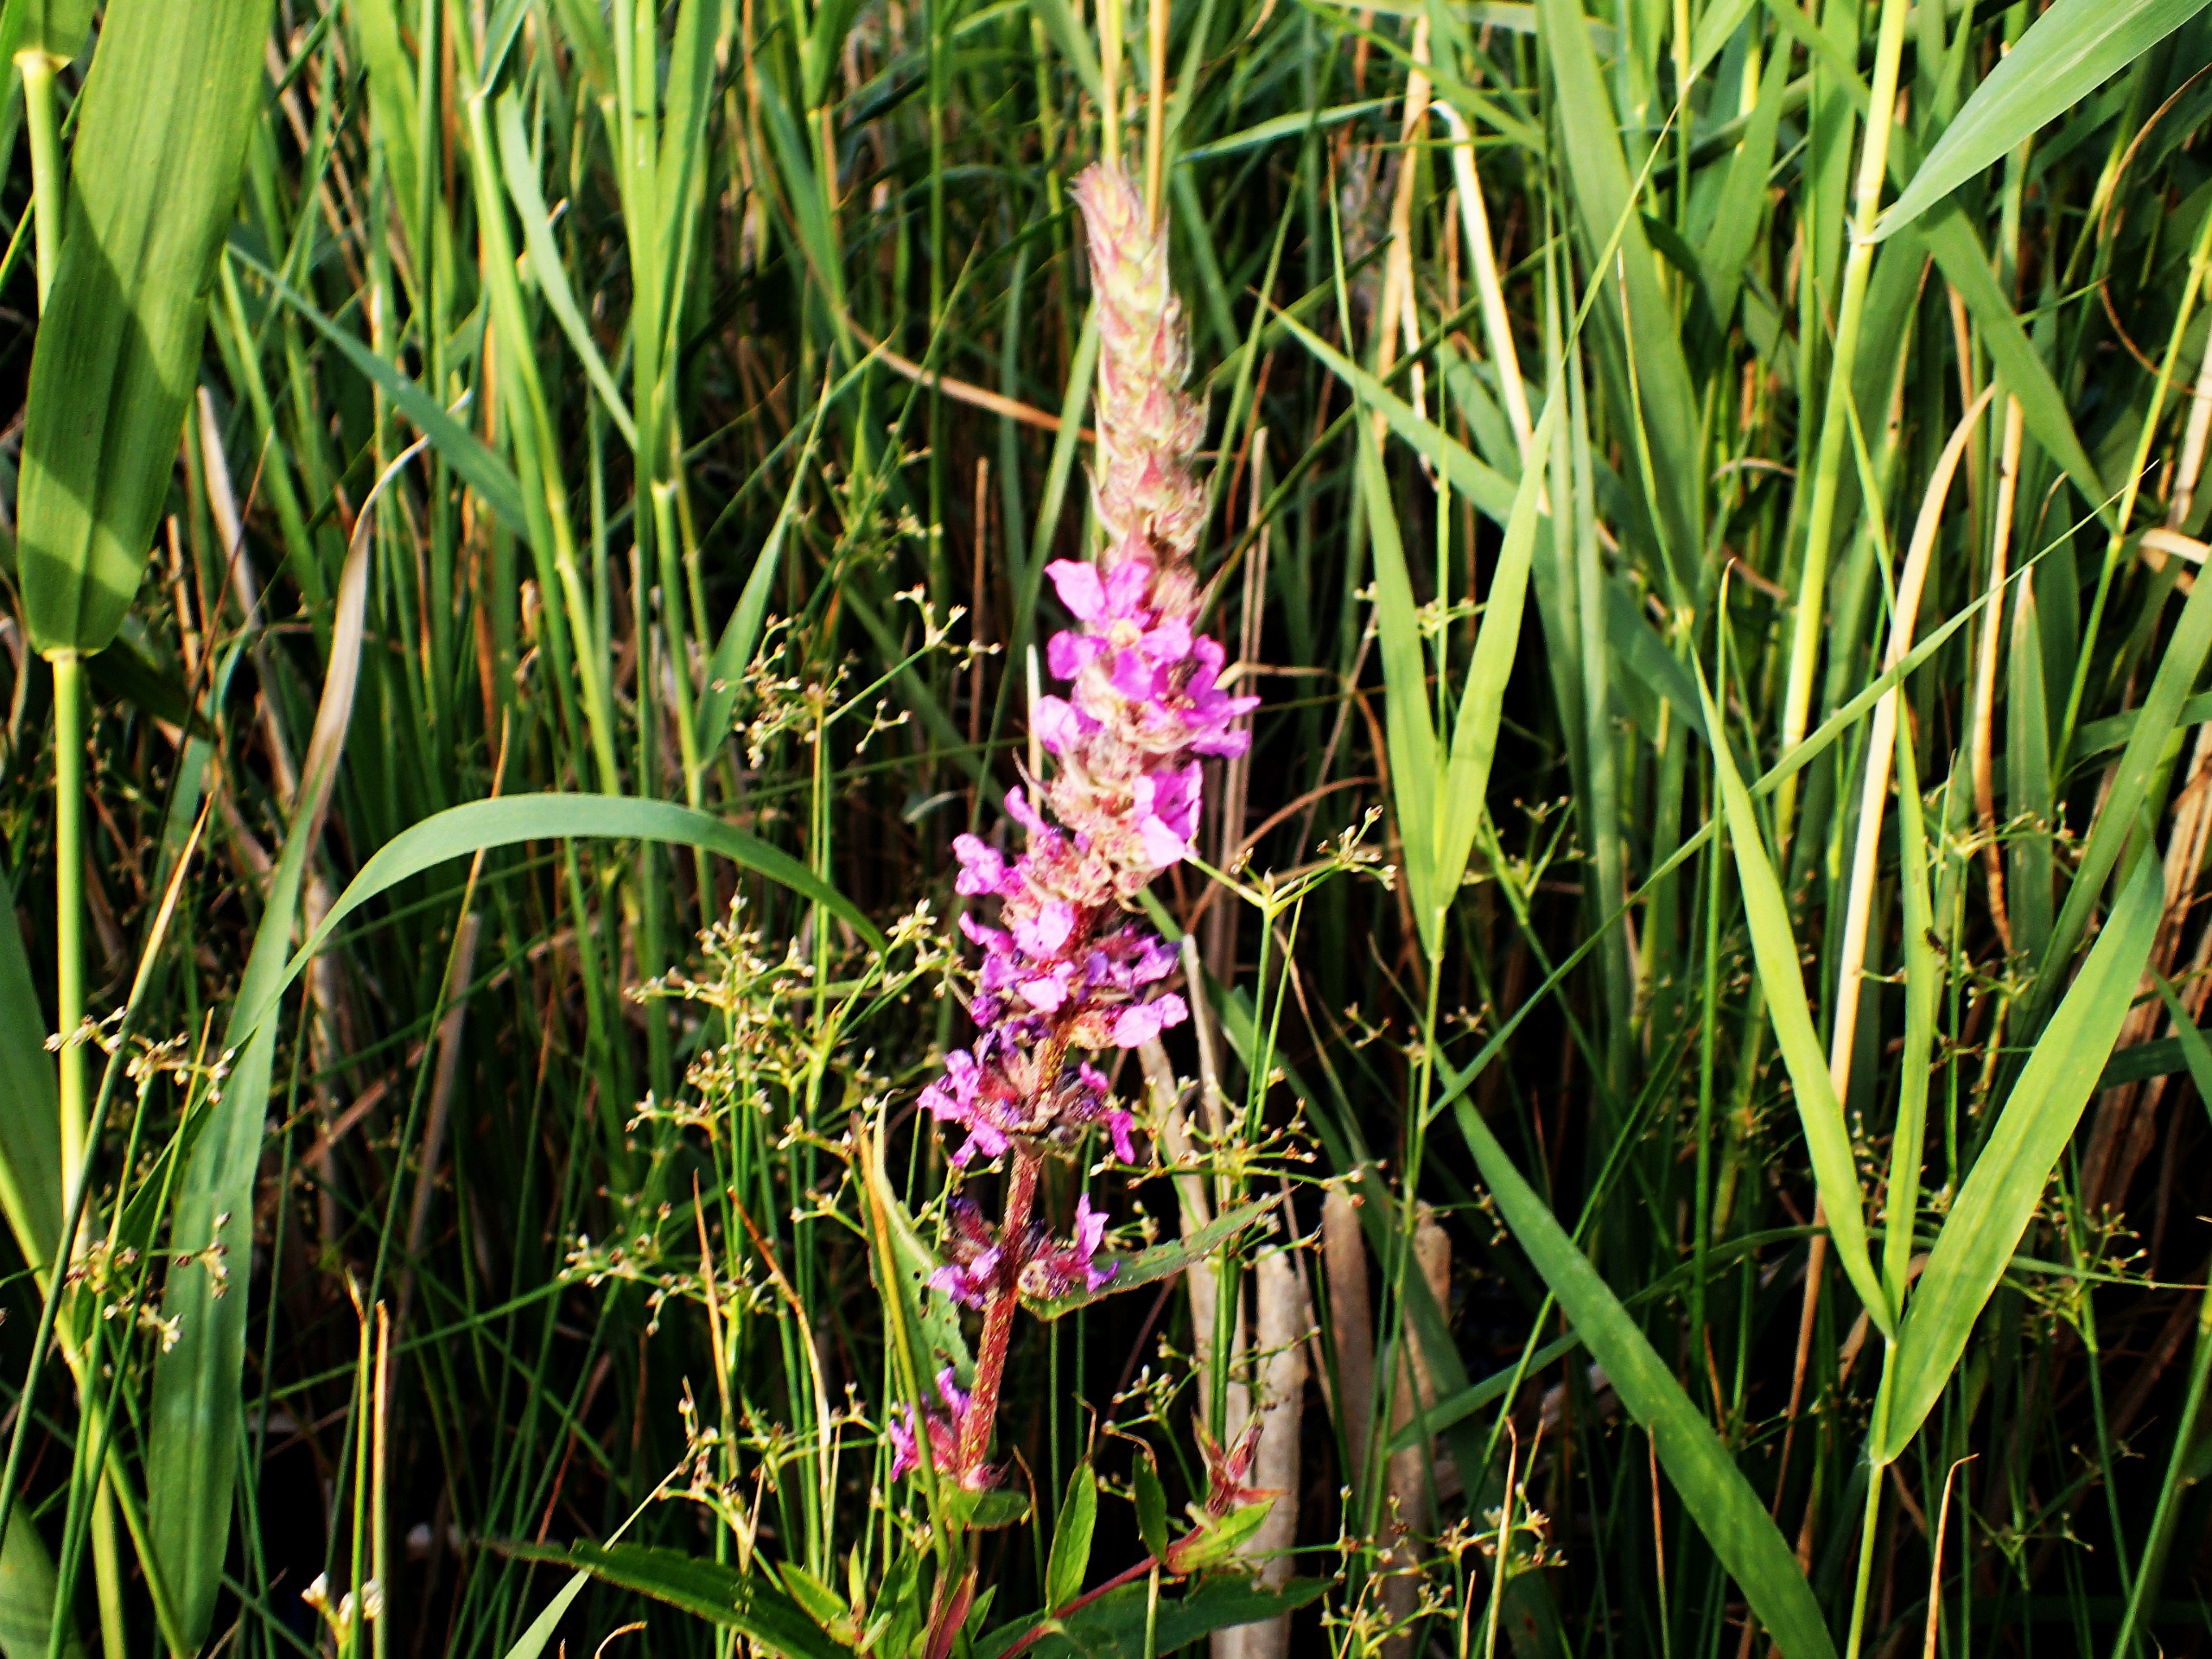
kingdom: Plantae
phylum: Tracheophyta
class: Magnoliopsida
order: Myrtales
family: Lythraceae
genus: Lythrum
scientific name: Lythrum salicaria
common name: Kattehale
